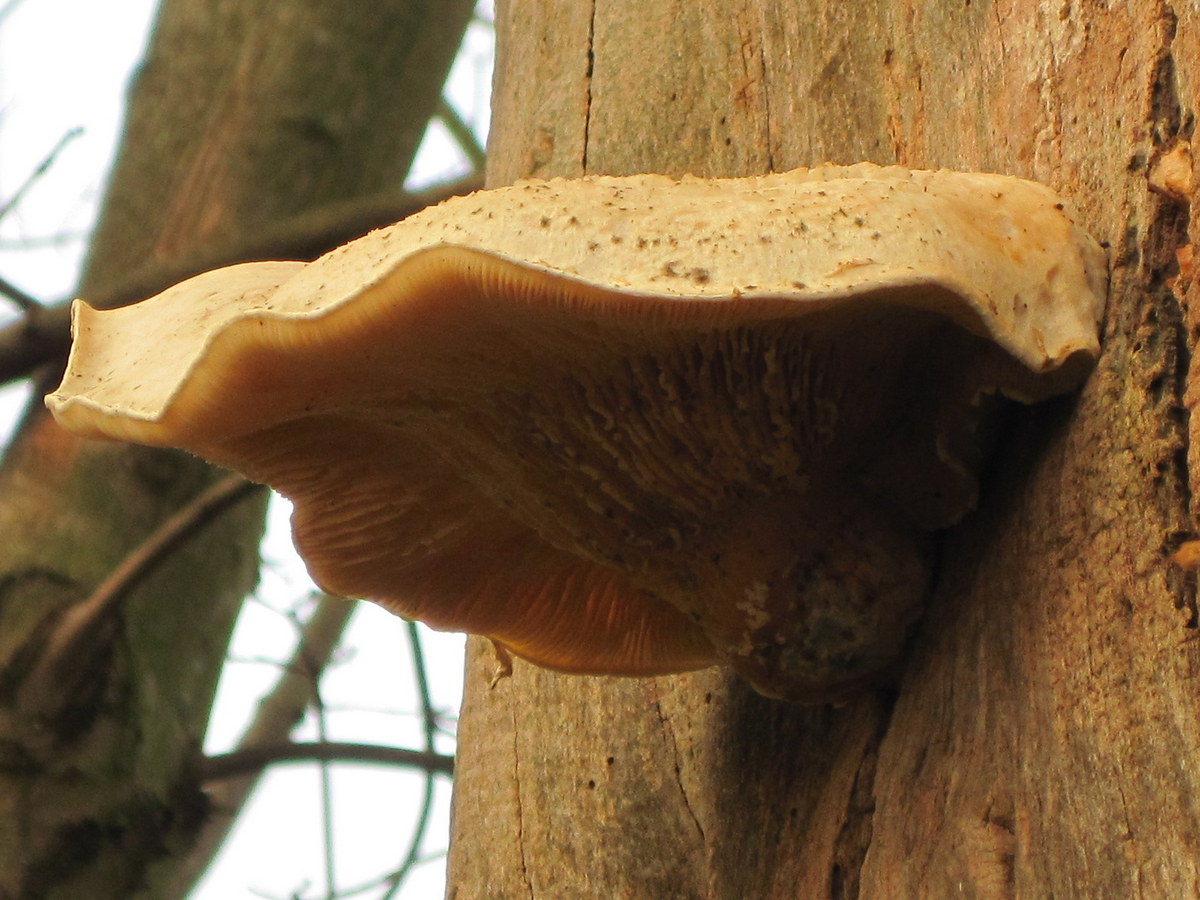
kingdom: Fungi
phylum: Basidiomycota
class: Agaricomycetes
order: Agaricales
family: Pleurotaceae
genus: Pleurotus
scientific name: Pleurotus dryinus
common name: korkagtig østershat
